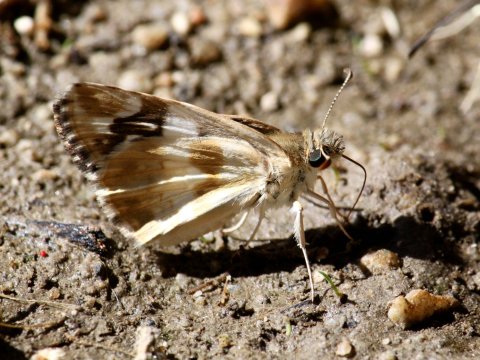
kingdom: Animalia
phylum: Arthropoda
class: Insecta
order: Lepidoptera
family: Hesperiidae
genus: Heliopyrgus
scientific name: Heliopyrgus domicella
